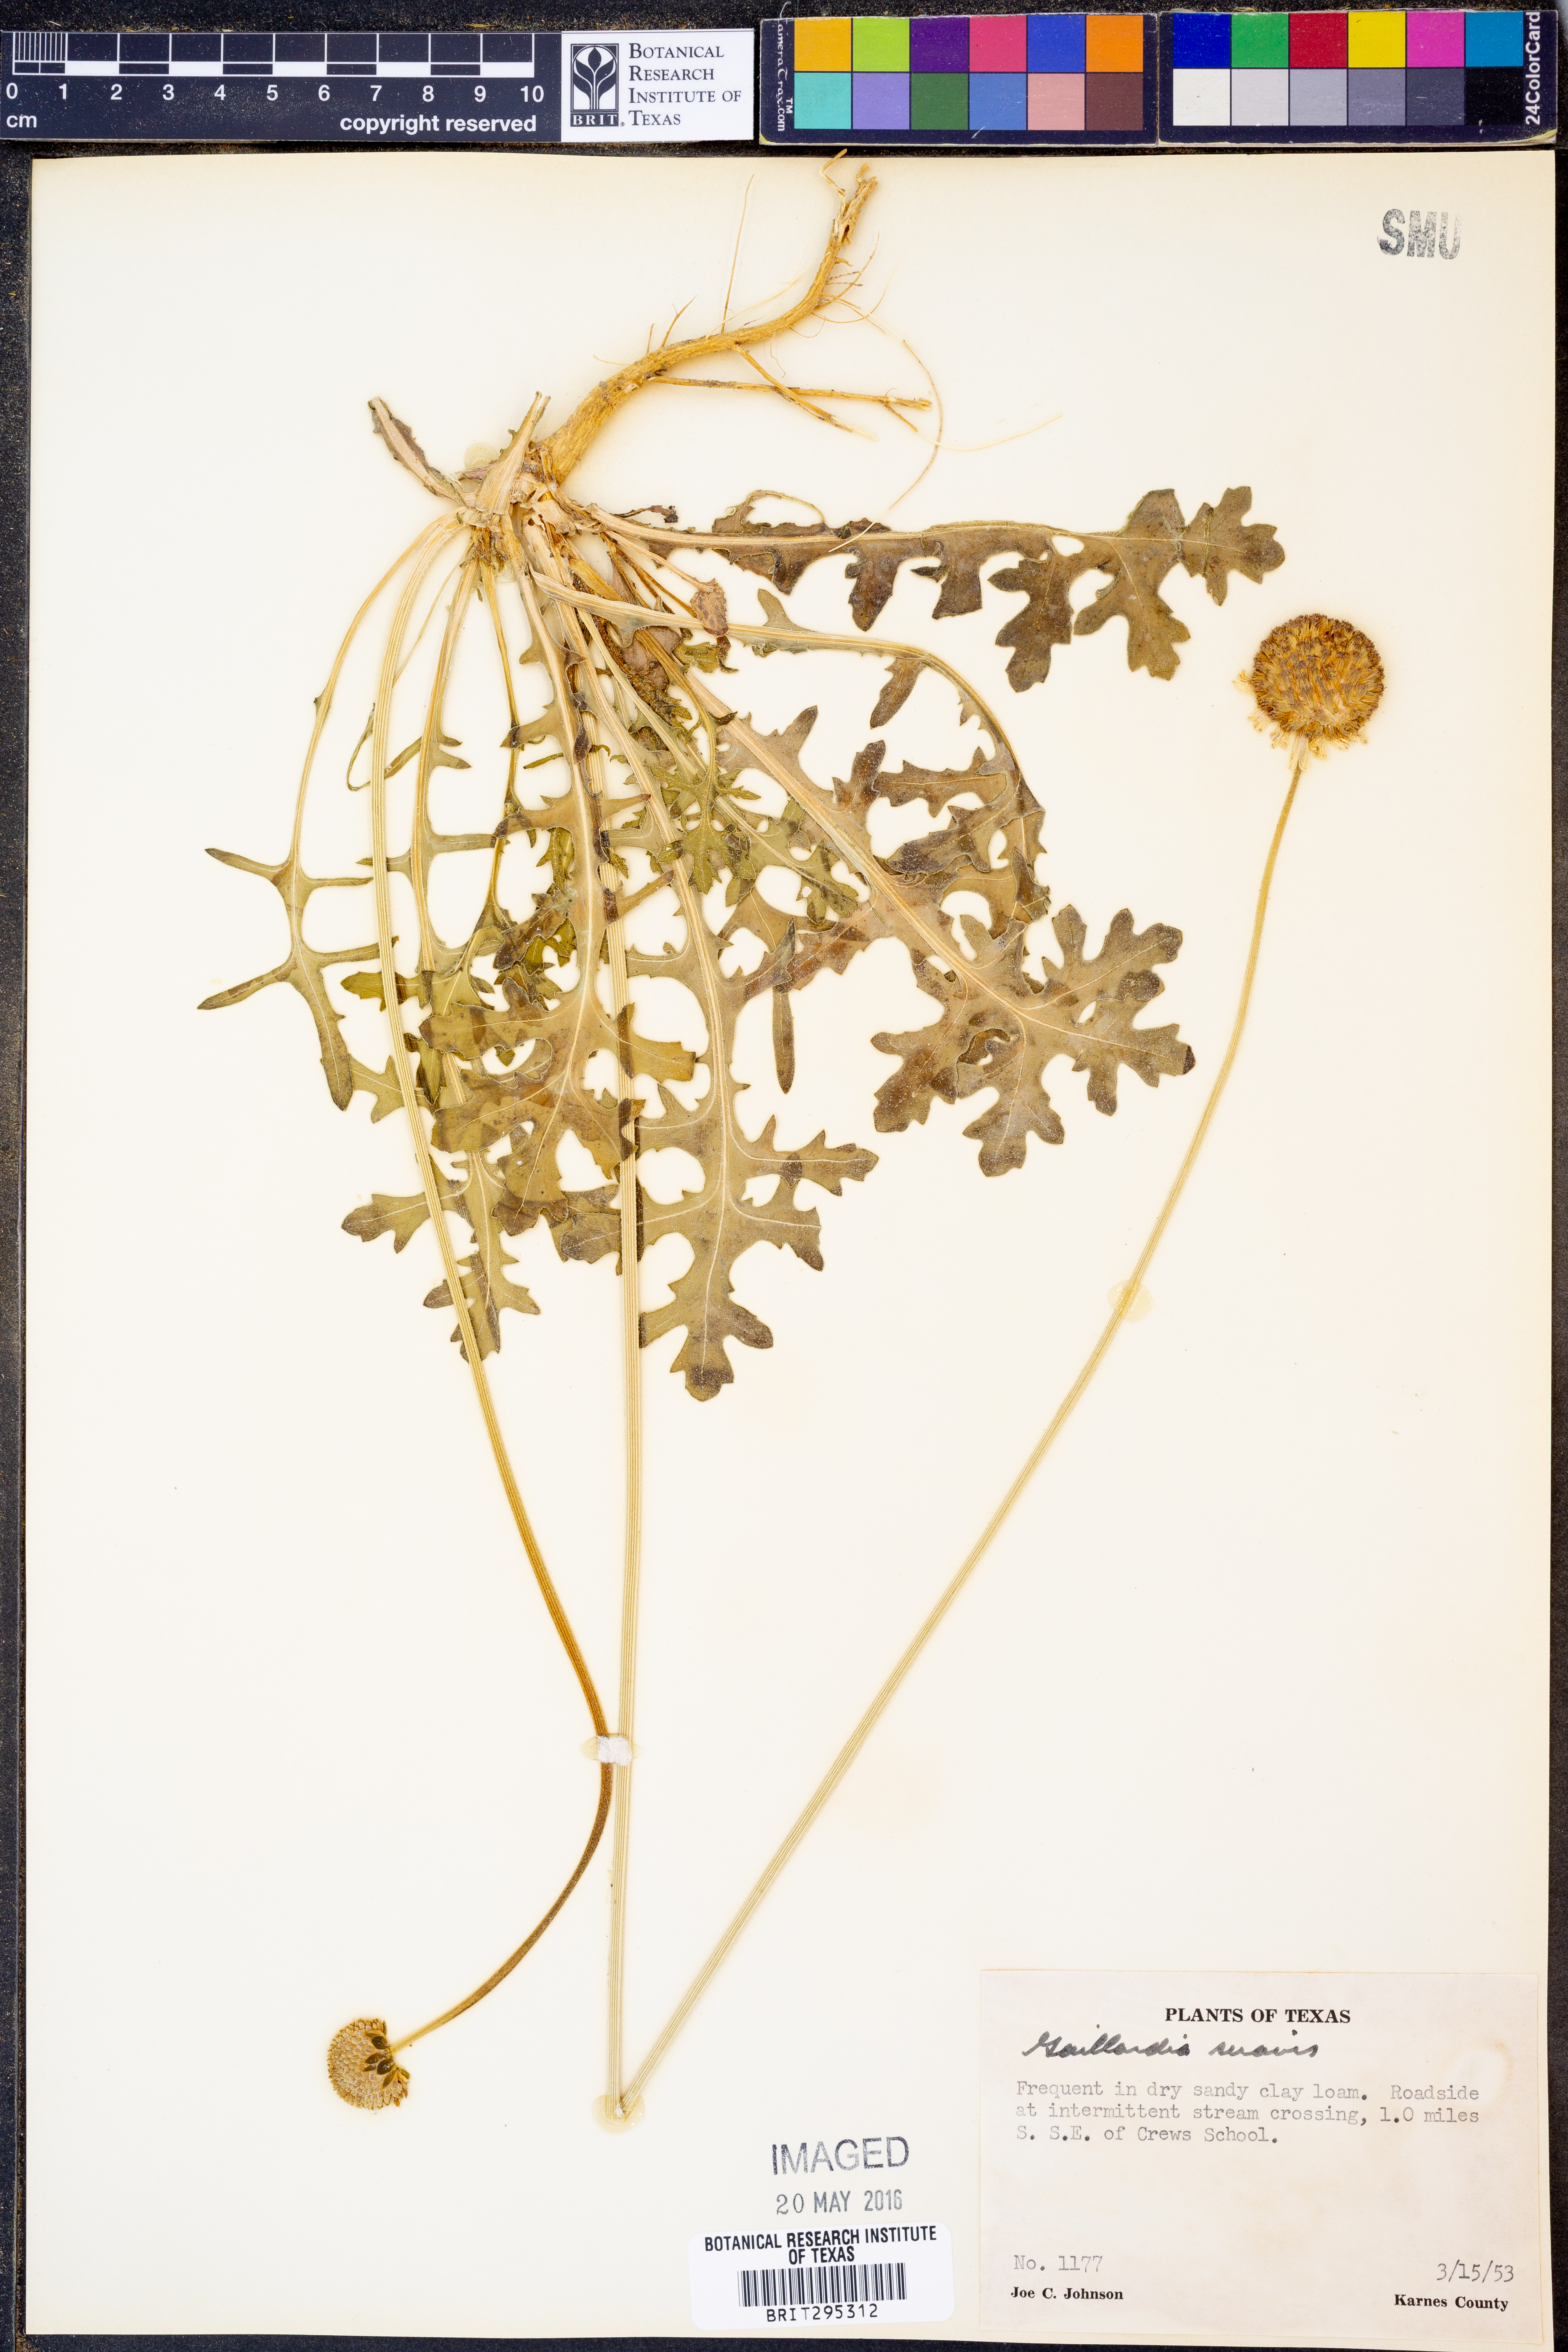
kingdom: Plantae
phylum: Tracheophyta
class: Magnoliopsida
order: Asterales
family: Asteraceae
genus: Gaillardia
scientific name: Gaillardia suavis
